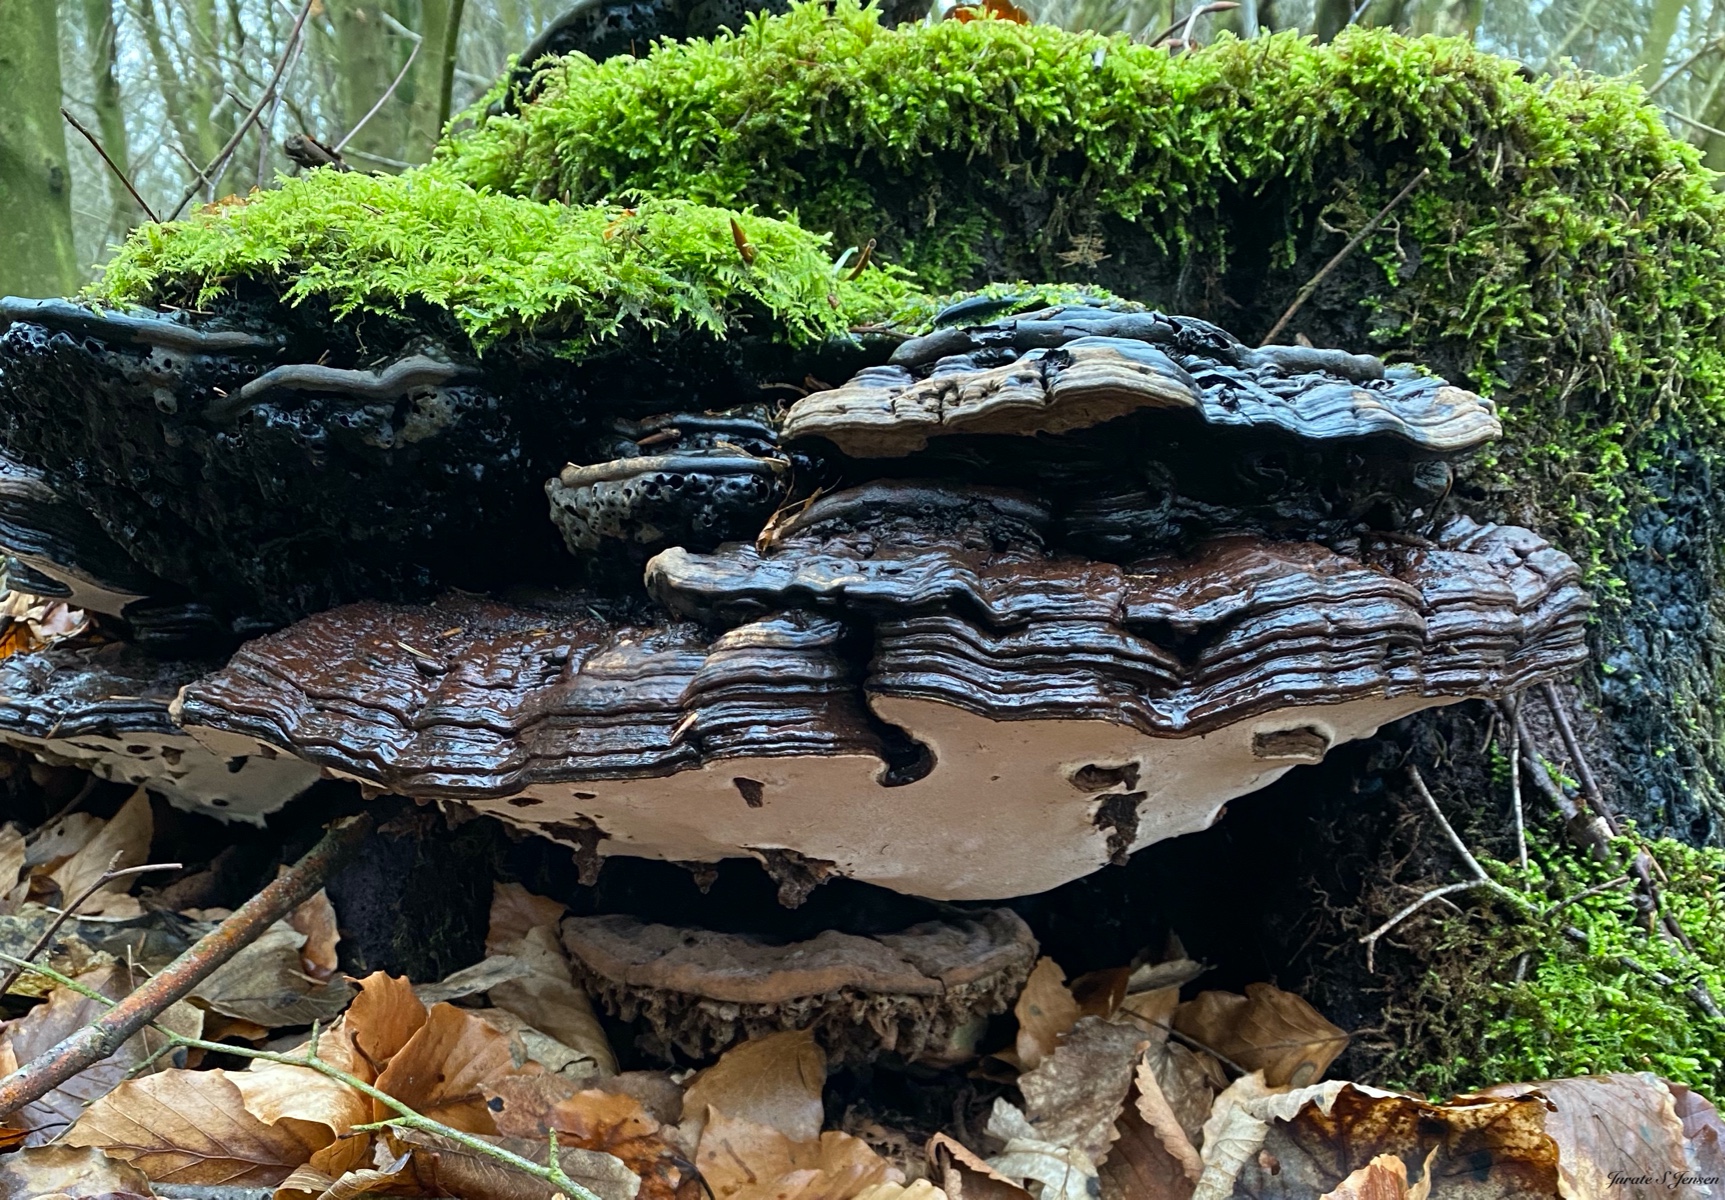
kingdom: Fungi
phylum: Basidiomycota
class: Agaricomycetes
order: Polyporales
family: Polyporaceae
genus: Ganoderma
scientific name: Ganoderma applanatum
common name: flad lakporesvamp
